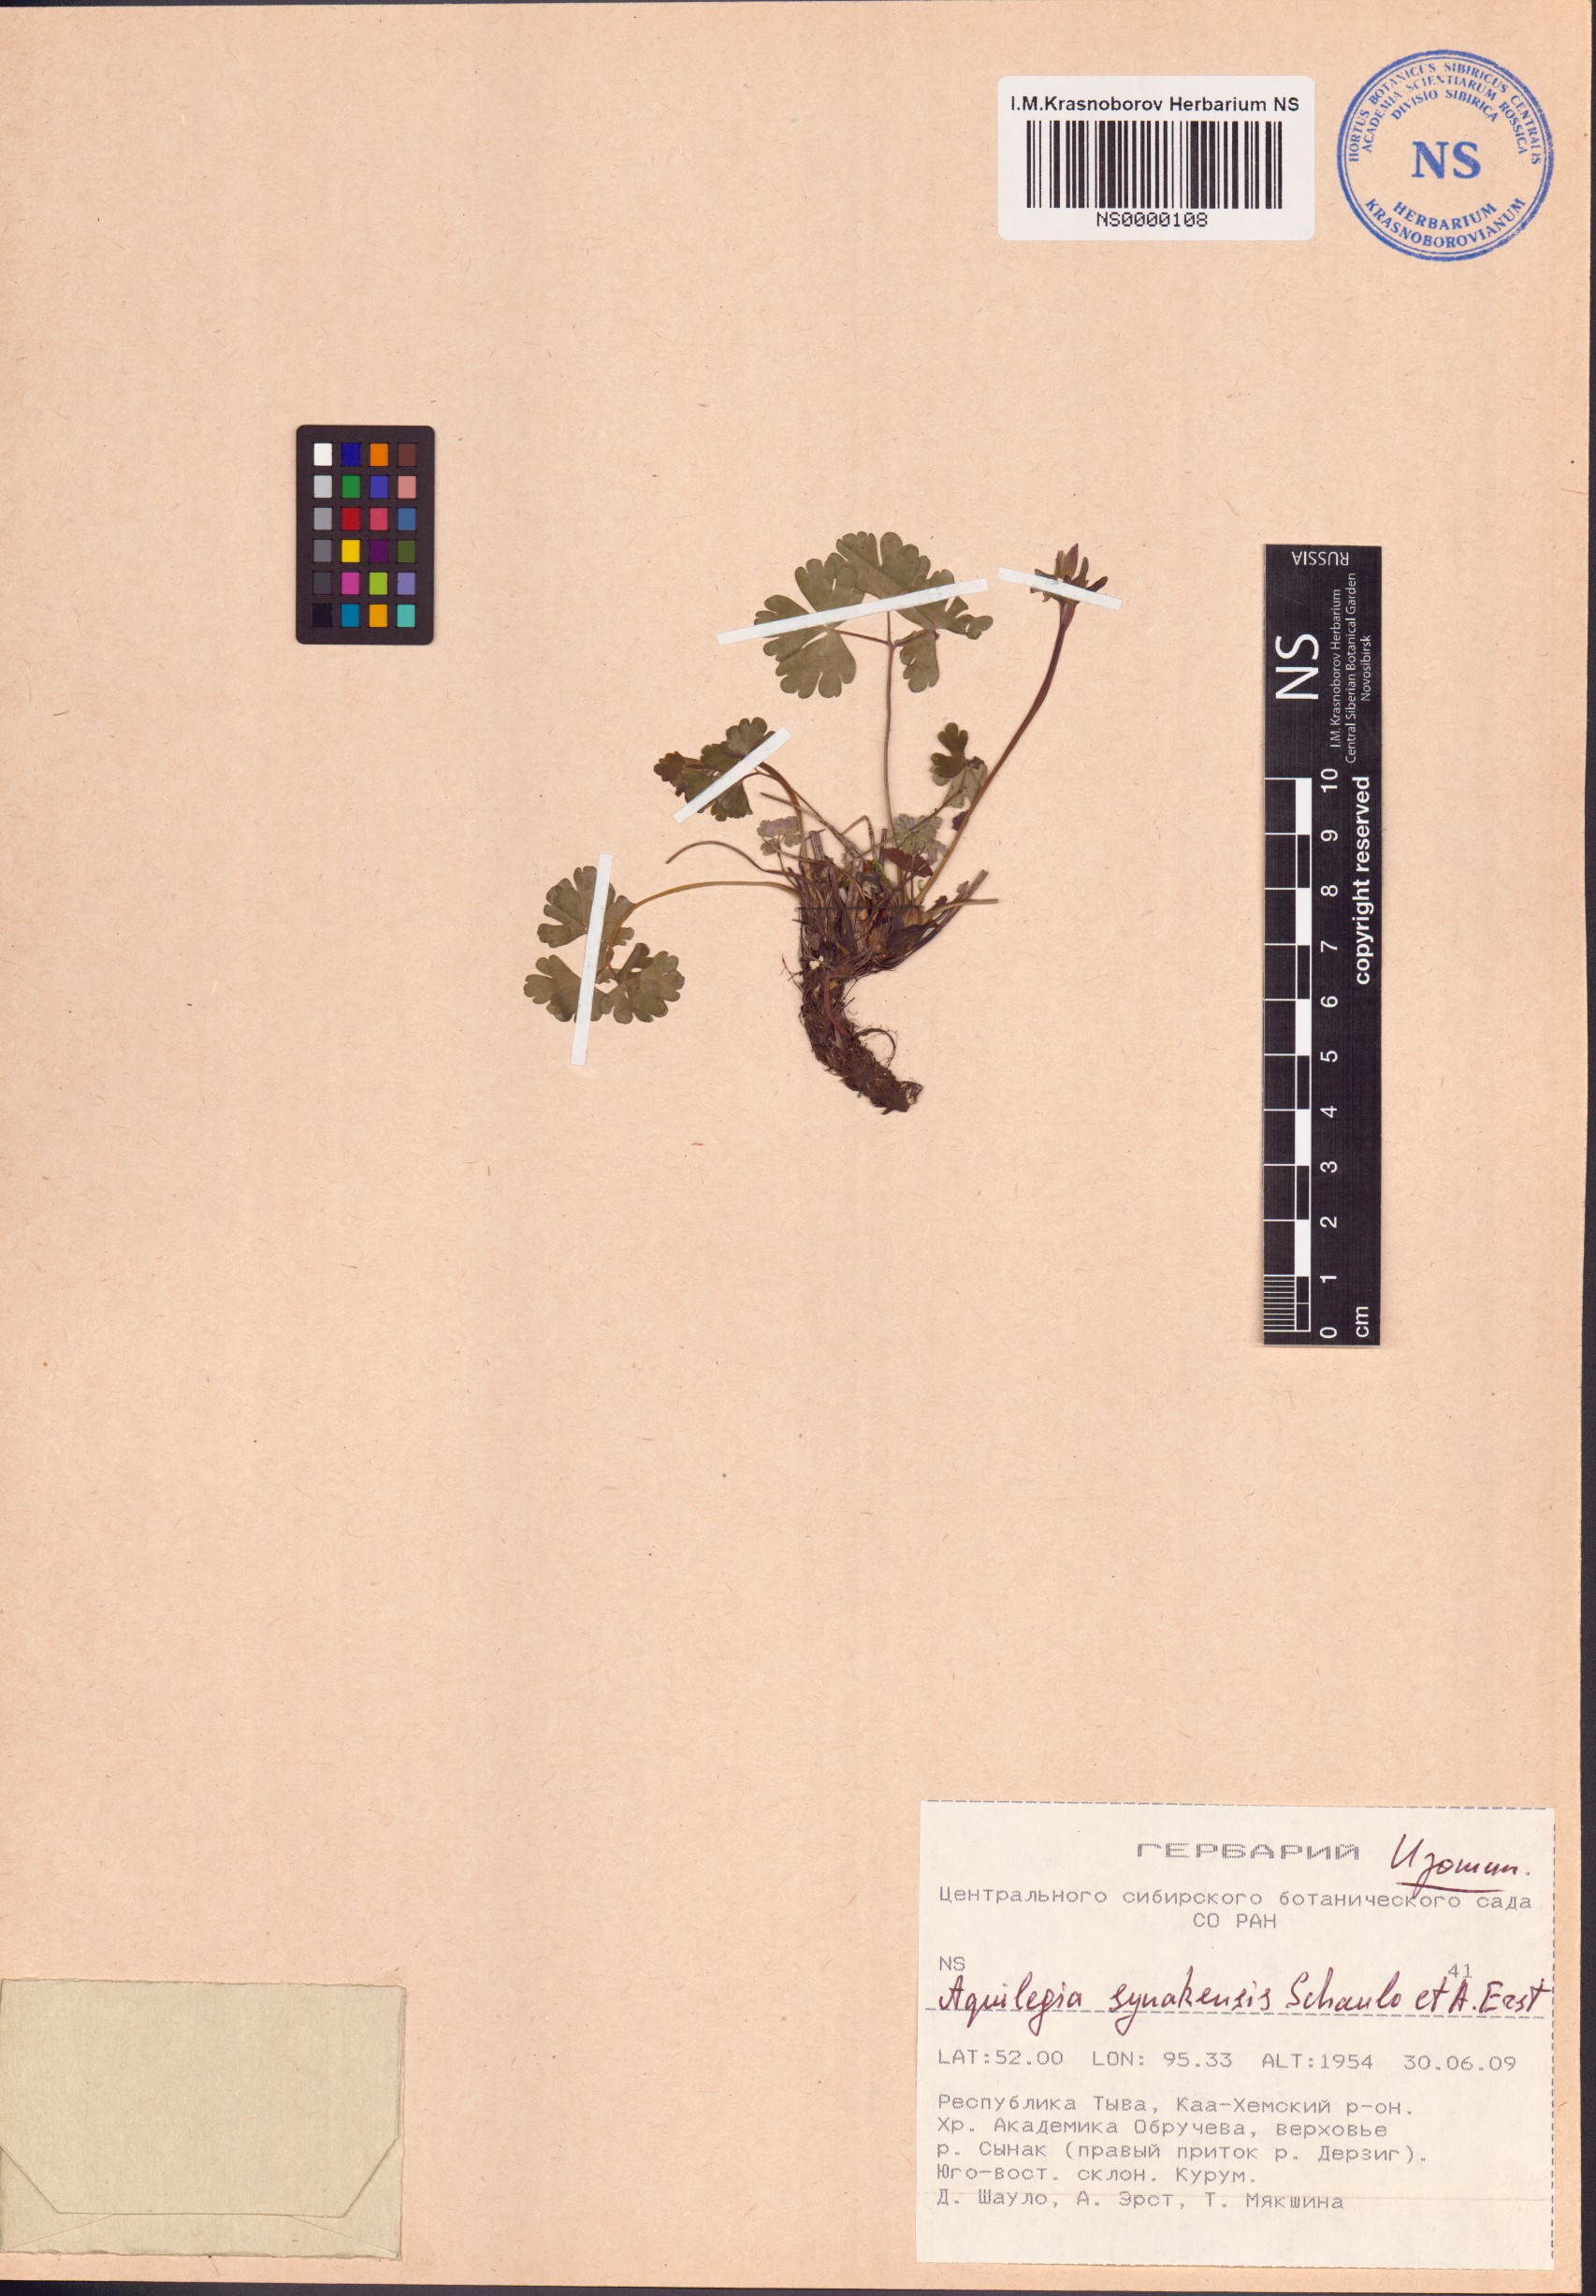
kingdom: Plantae
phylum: Tracheophyta
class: Magnoliopsida
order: Ranunculales
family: Ranunculaceae
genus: Aquilegia
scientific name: Aquilegia synakensis
